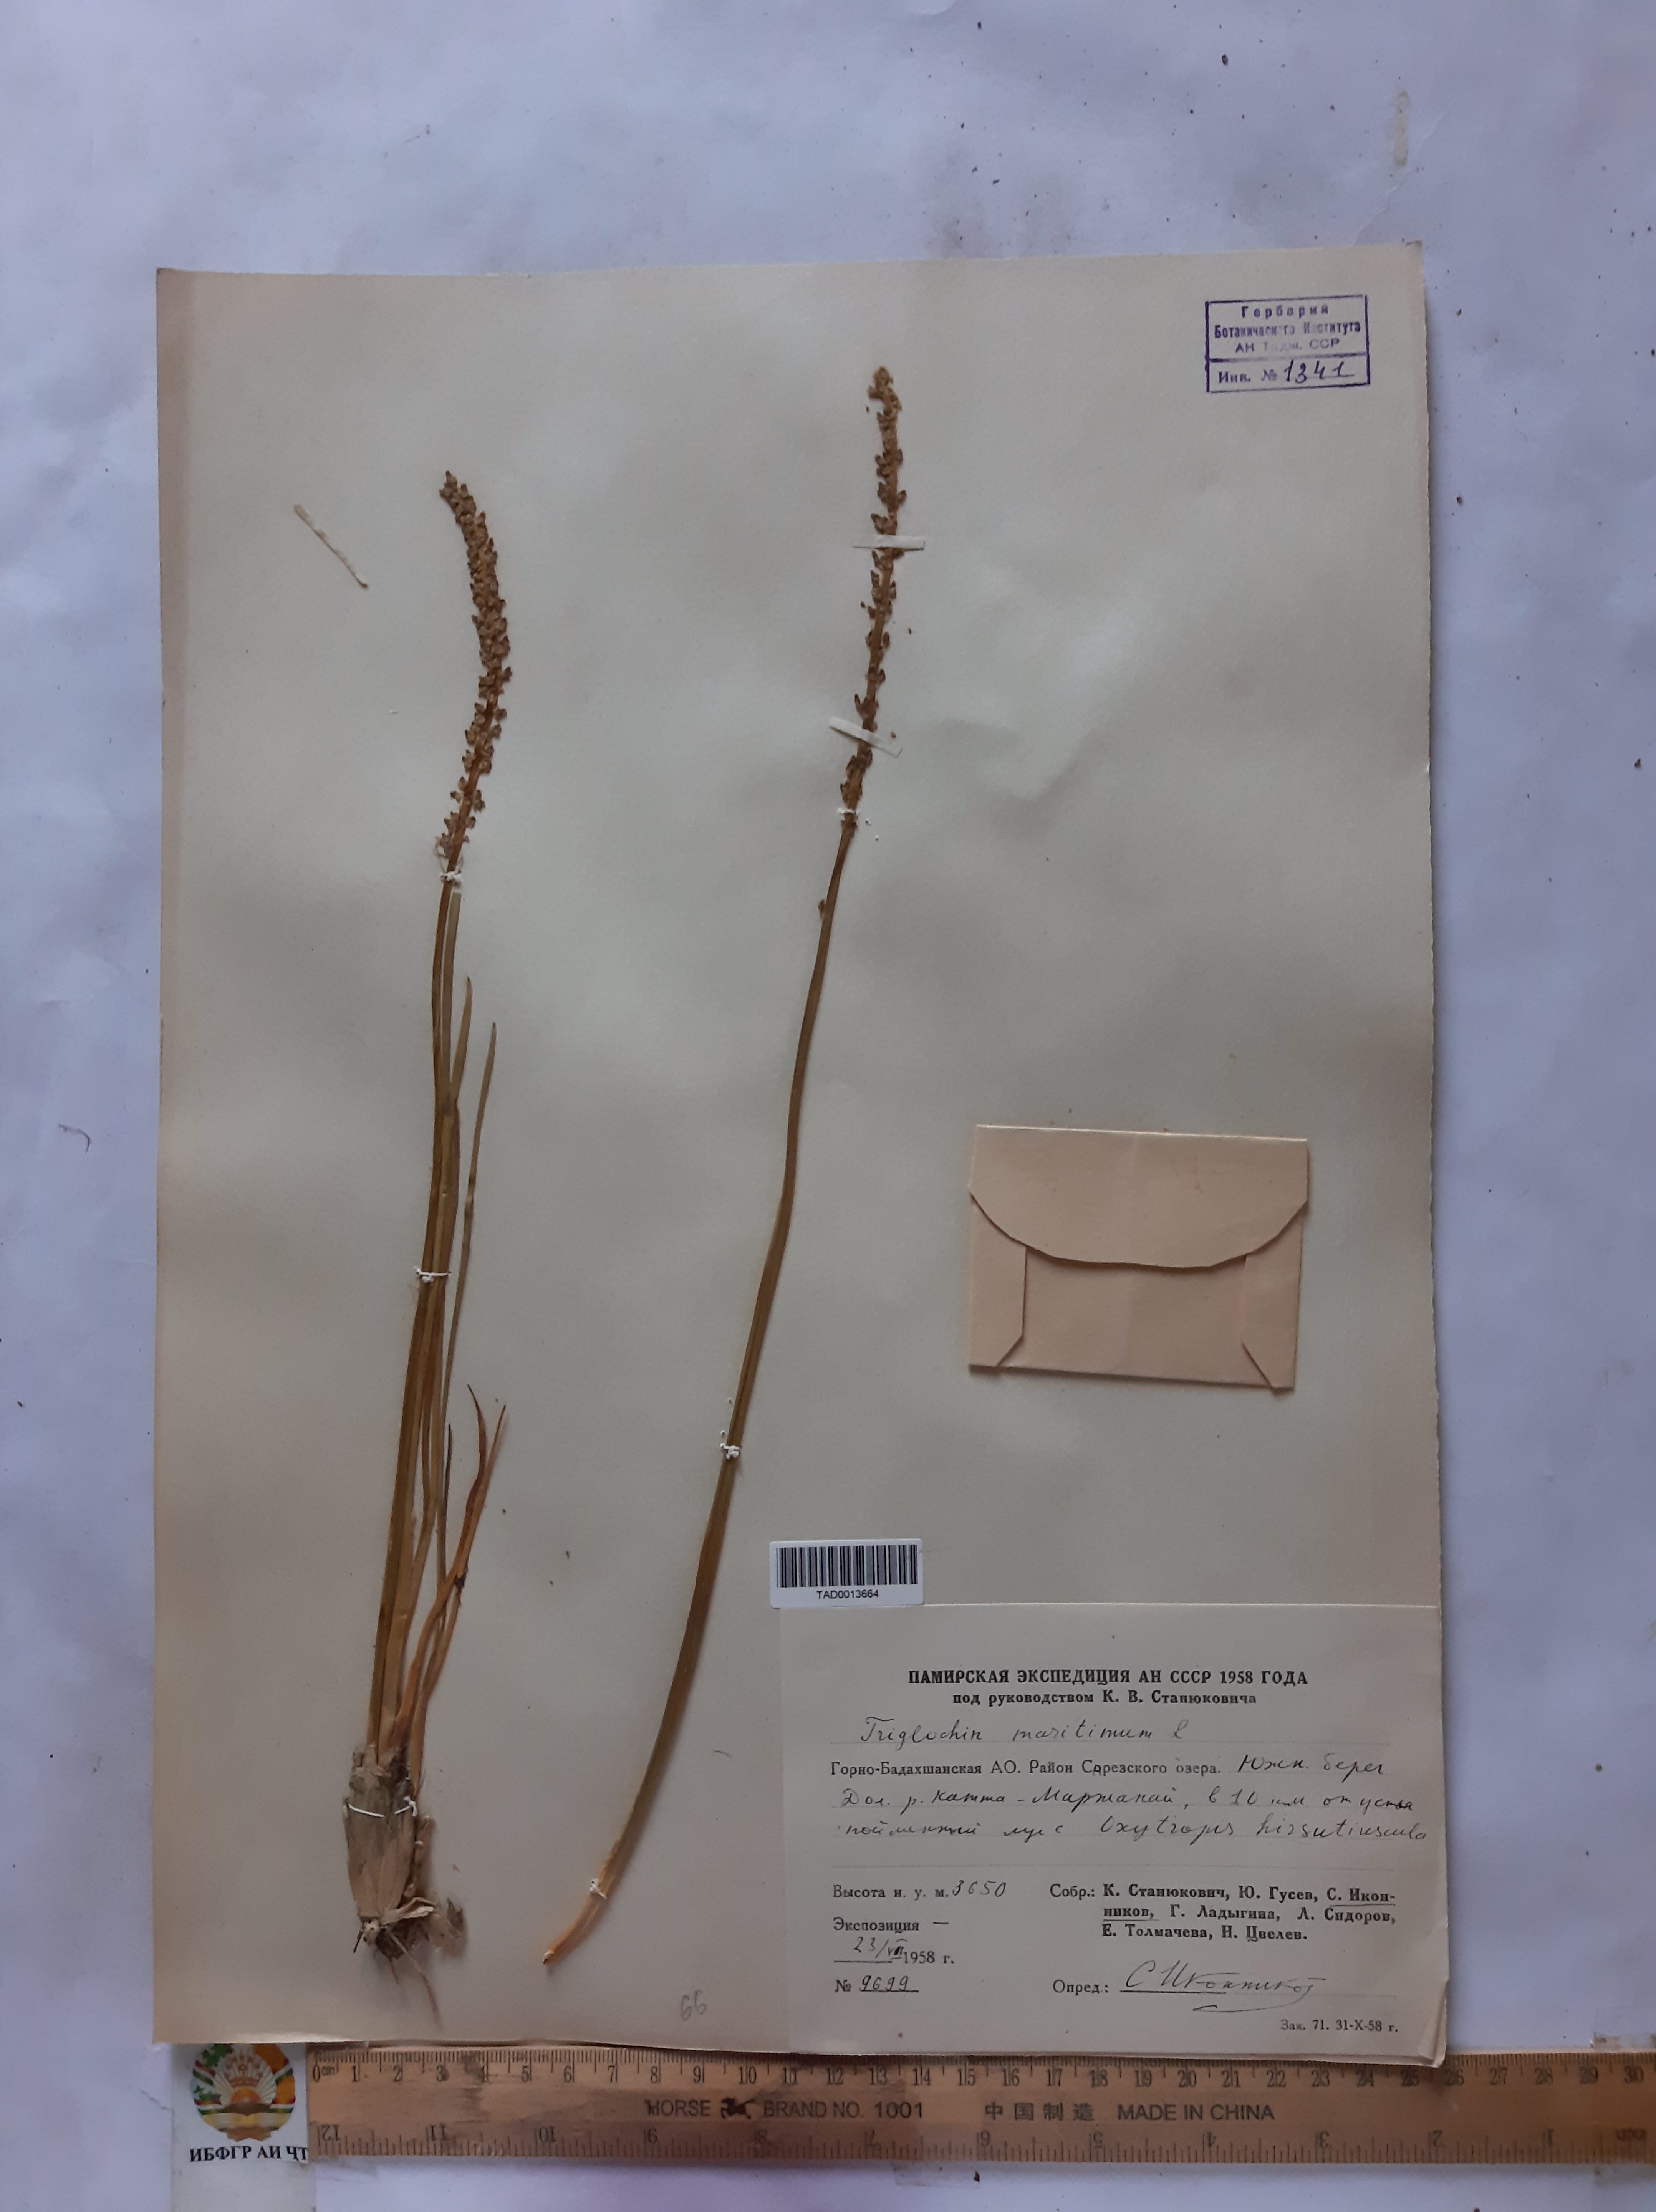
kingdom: Plantae
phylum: Tracheophyta
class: Liliopsida
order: Alismatales
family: Juncaginaceae
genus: Triglochin
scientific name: Triglochin maritima
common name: Sea arrowgrass
